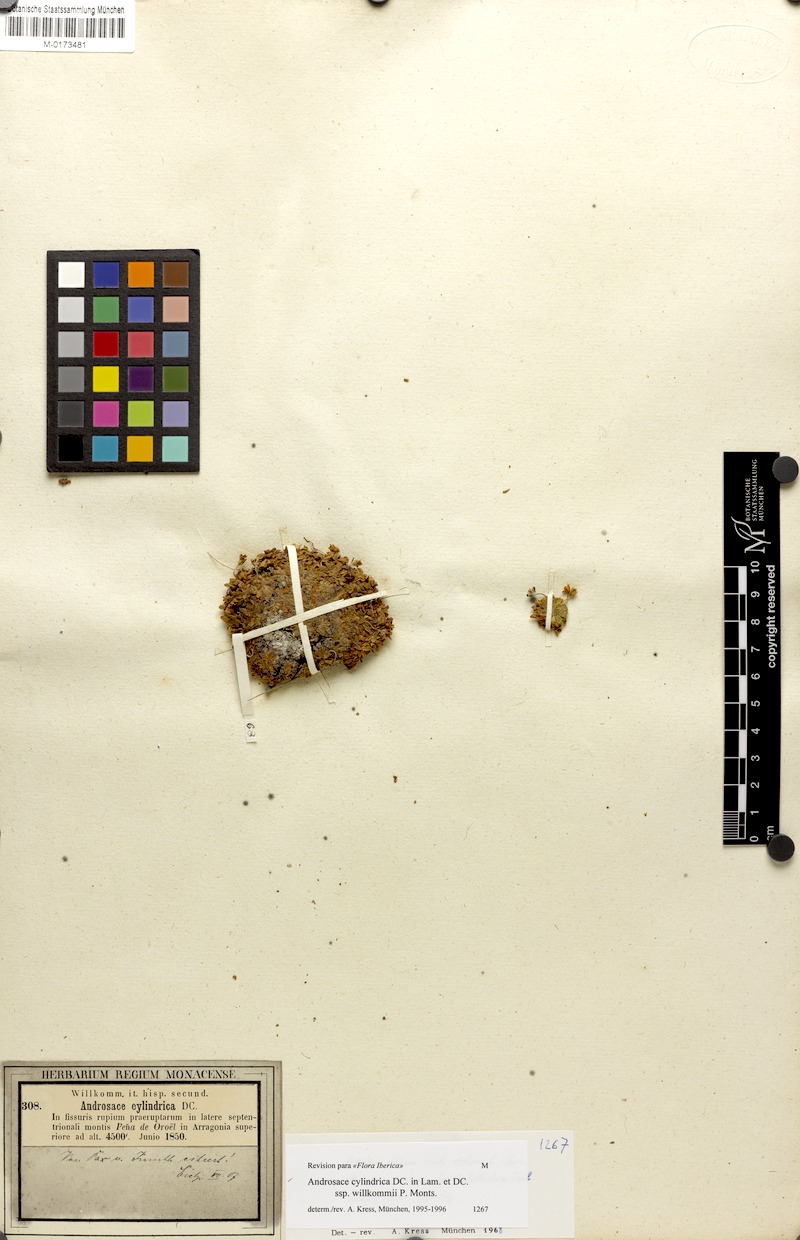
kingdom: Plantae
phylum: Tracheophyta
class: Magnoliopsida
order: Ericales
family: Primulaceae
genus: Androsace
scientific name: Androsace cylindrica
